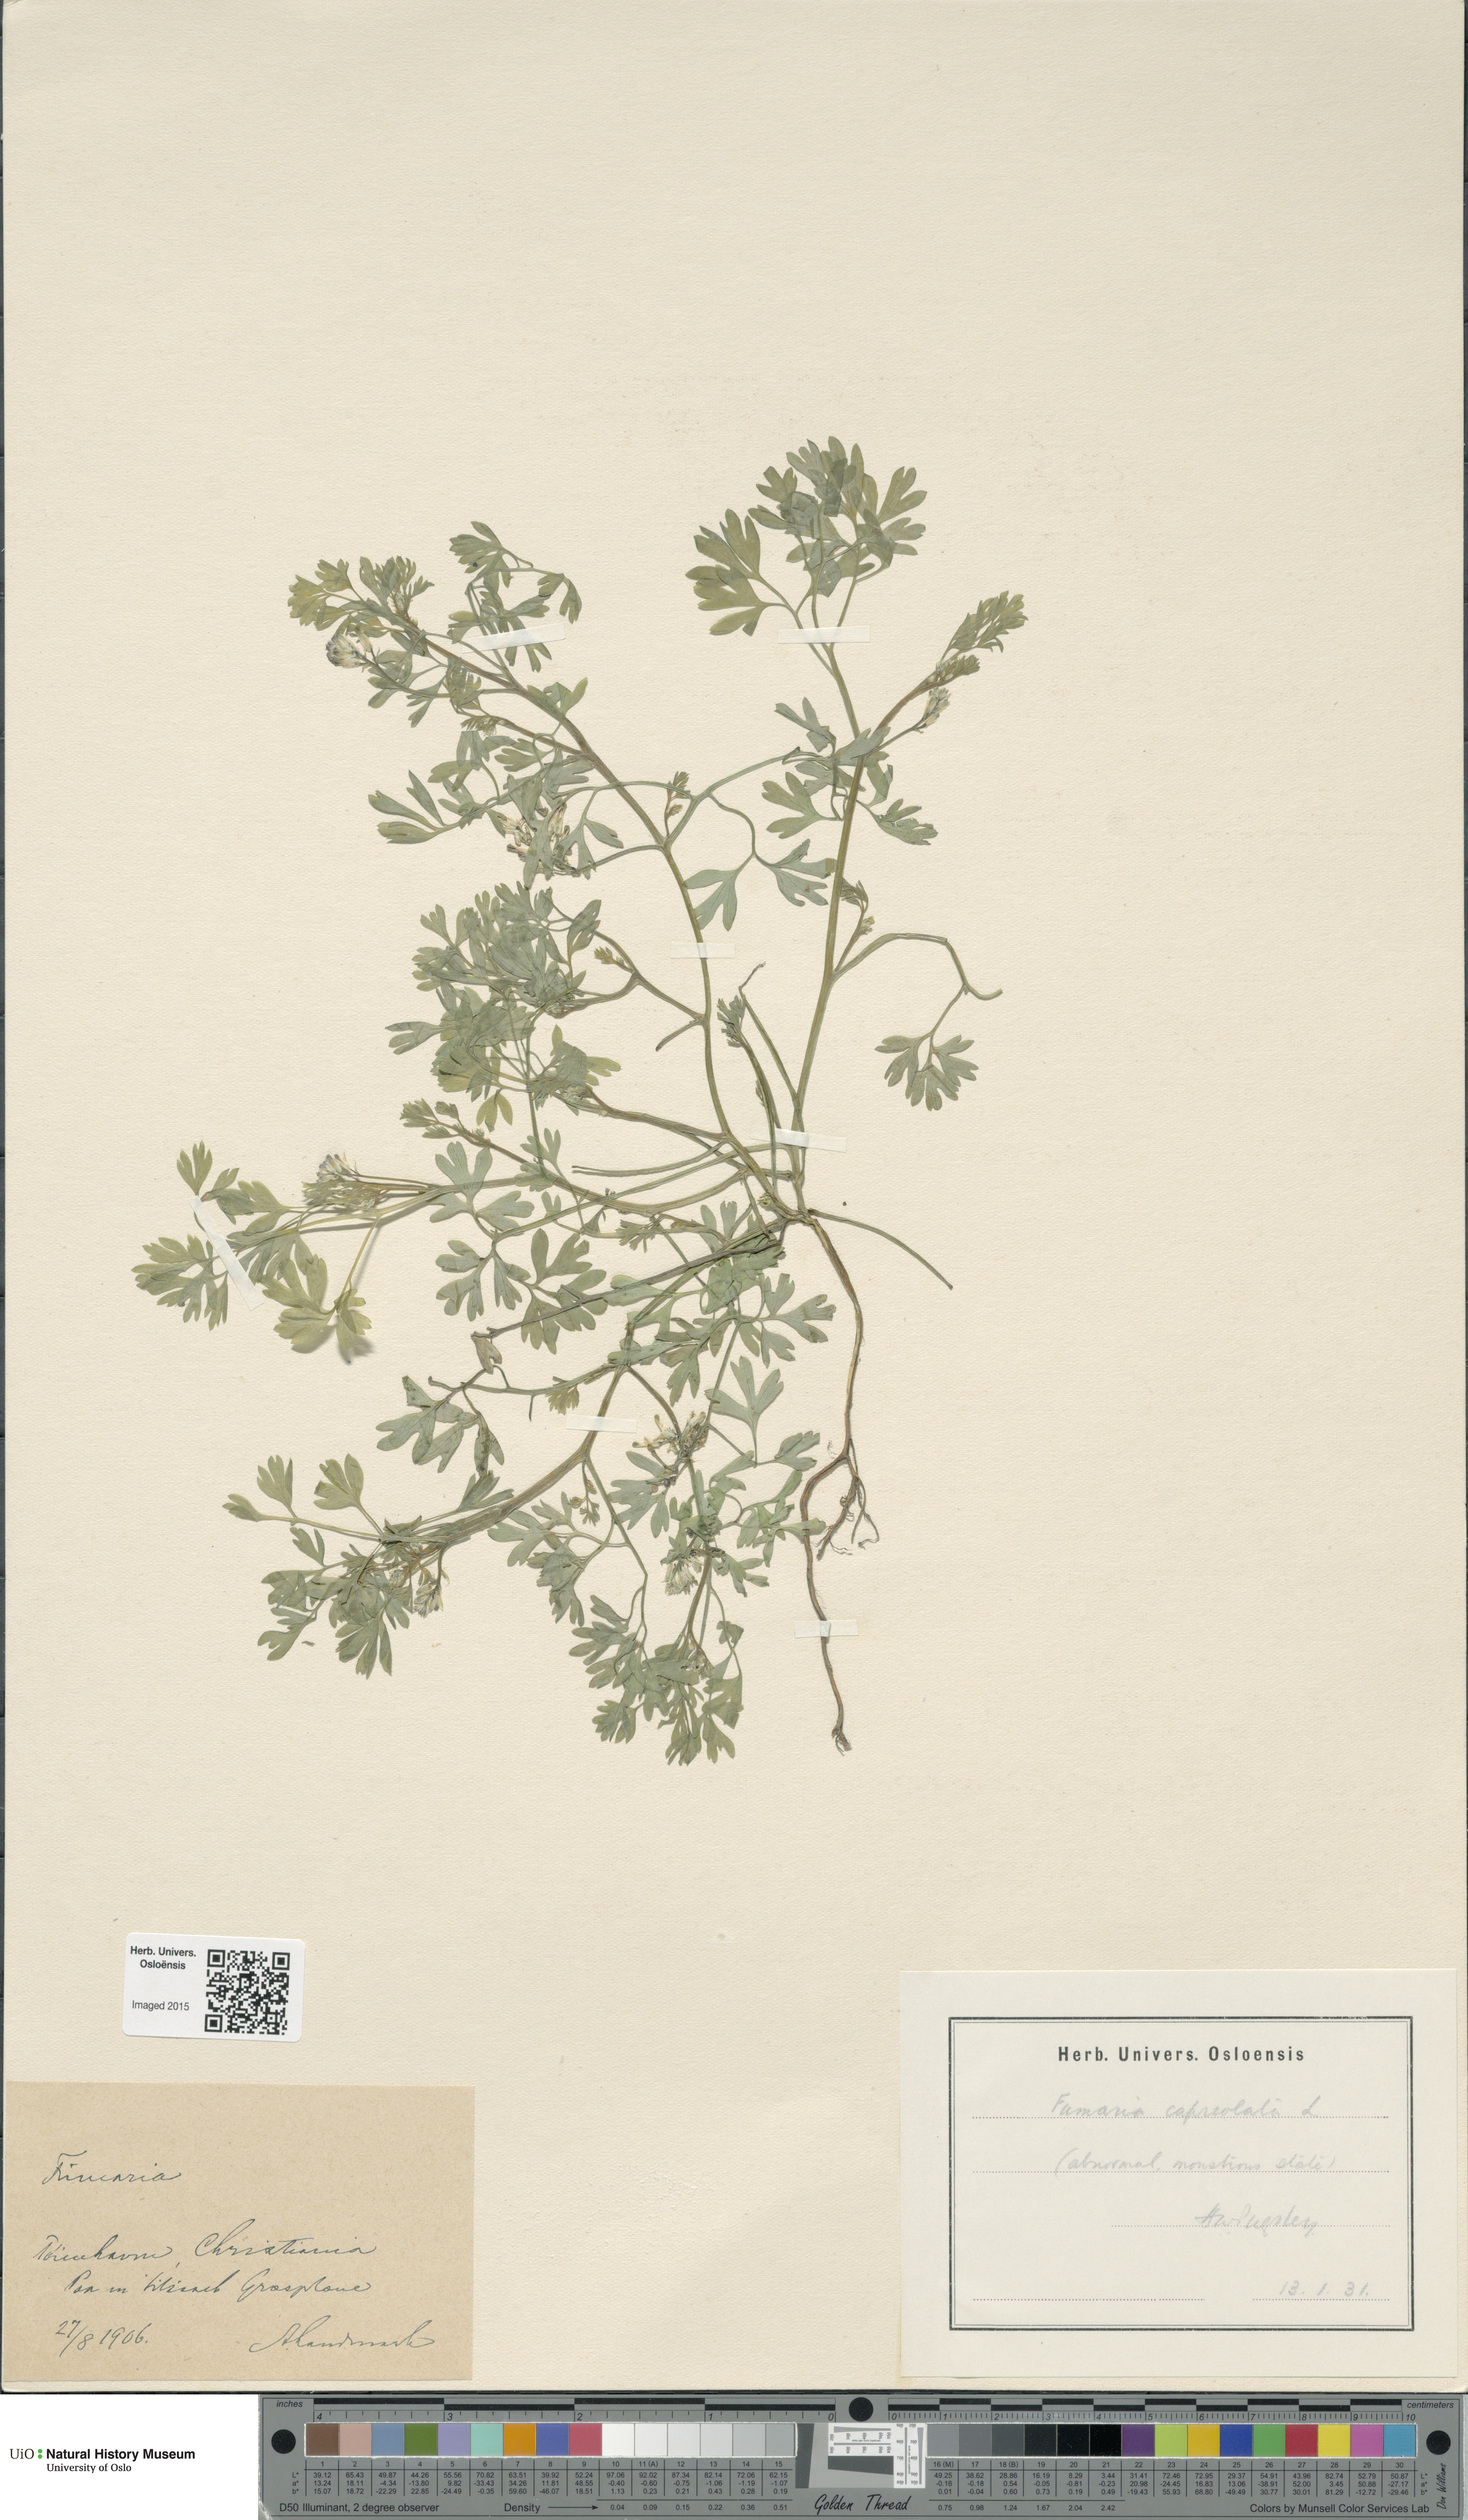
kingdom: Plantae
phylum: Tracheophyta
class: Magnoliopsida
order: Ranunculales
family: Papaveraceae
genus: Fumaria
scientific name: Fumaria capreolata
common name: White ramping-fumitory
